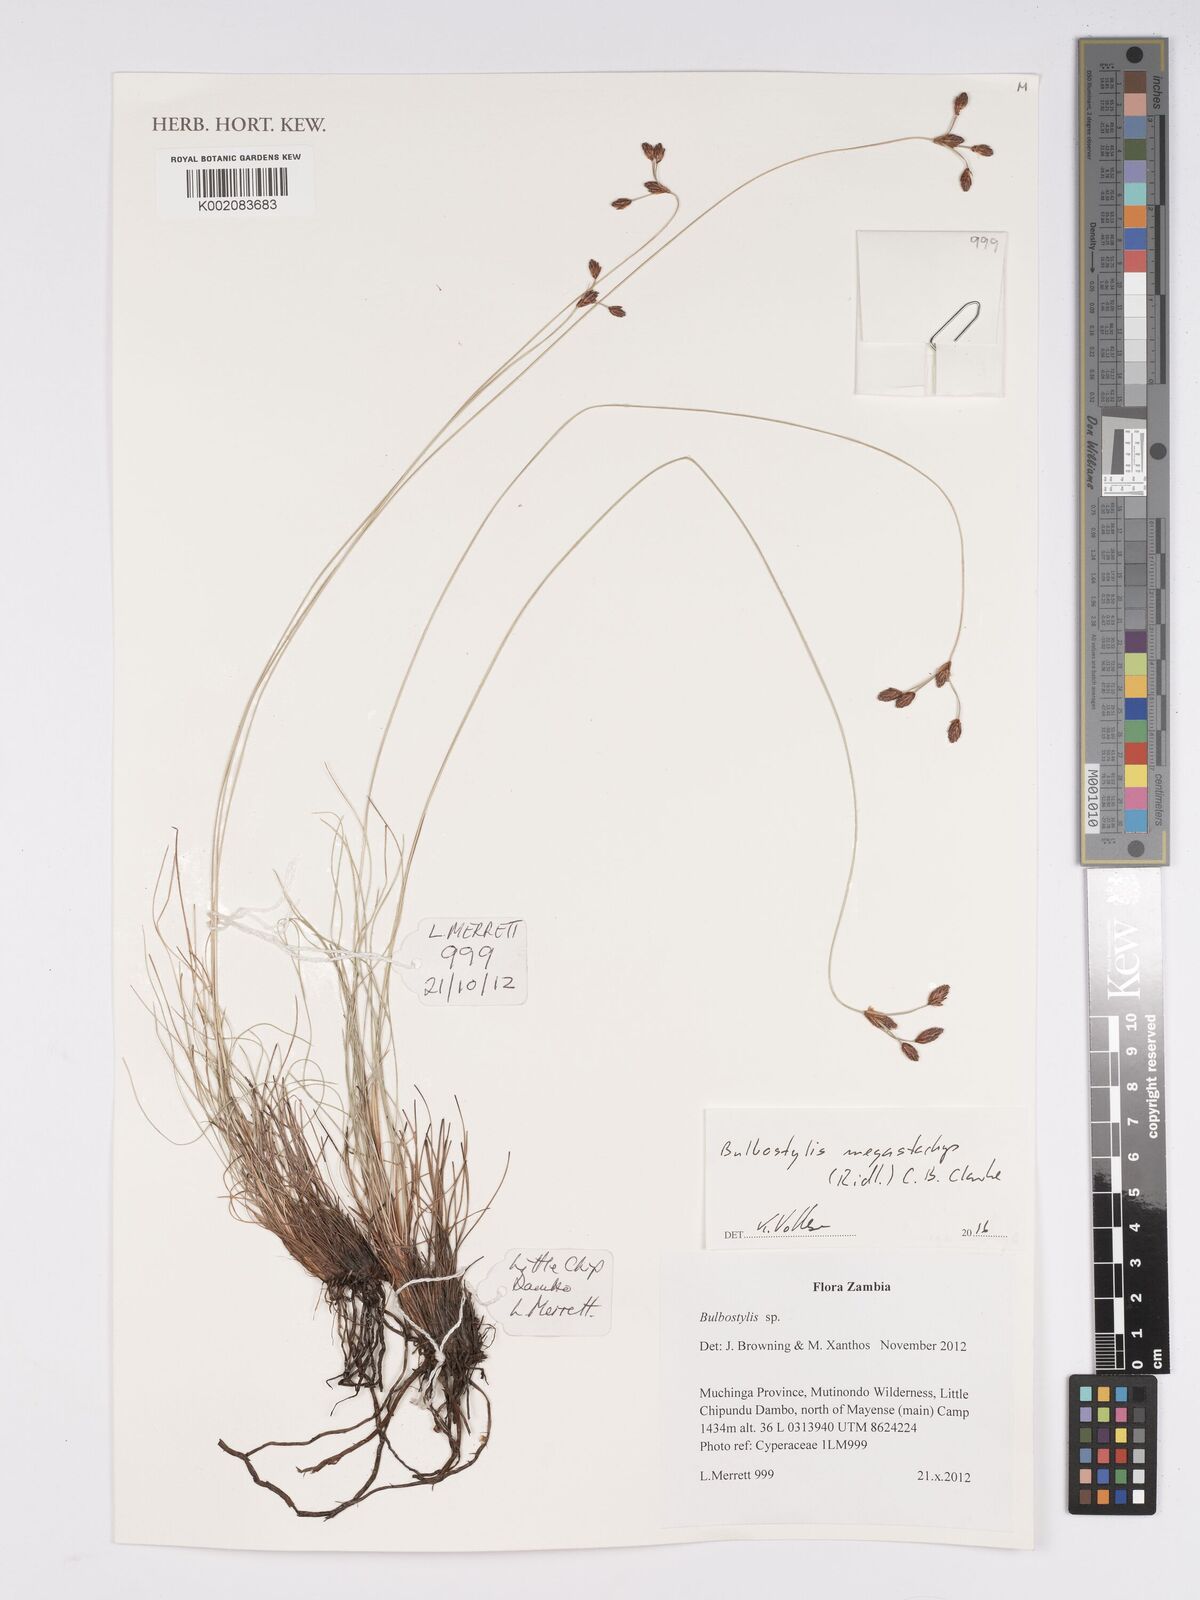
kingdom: Plantae
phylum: Tracheophyta
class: Liliopsida
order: Poales
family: Cyperaceae
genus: Bulbostylis
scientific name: Bulbostylis schoenoides
